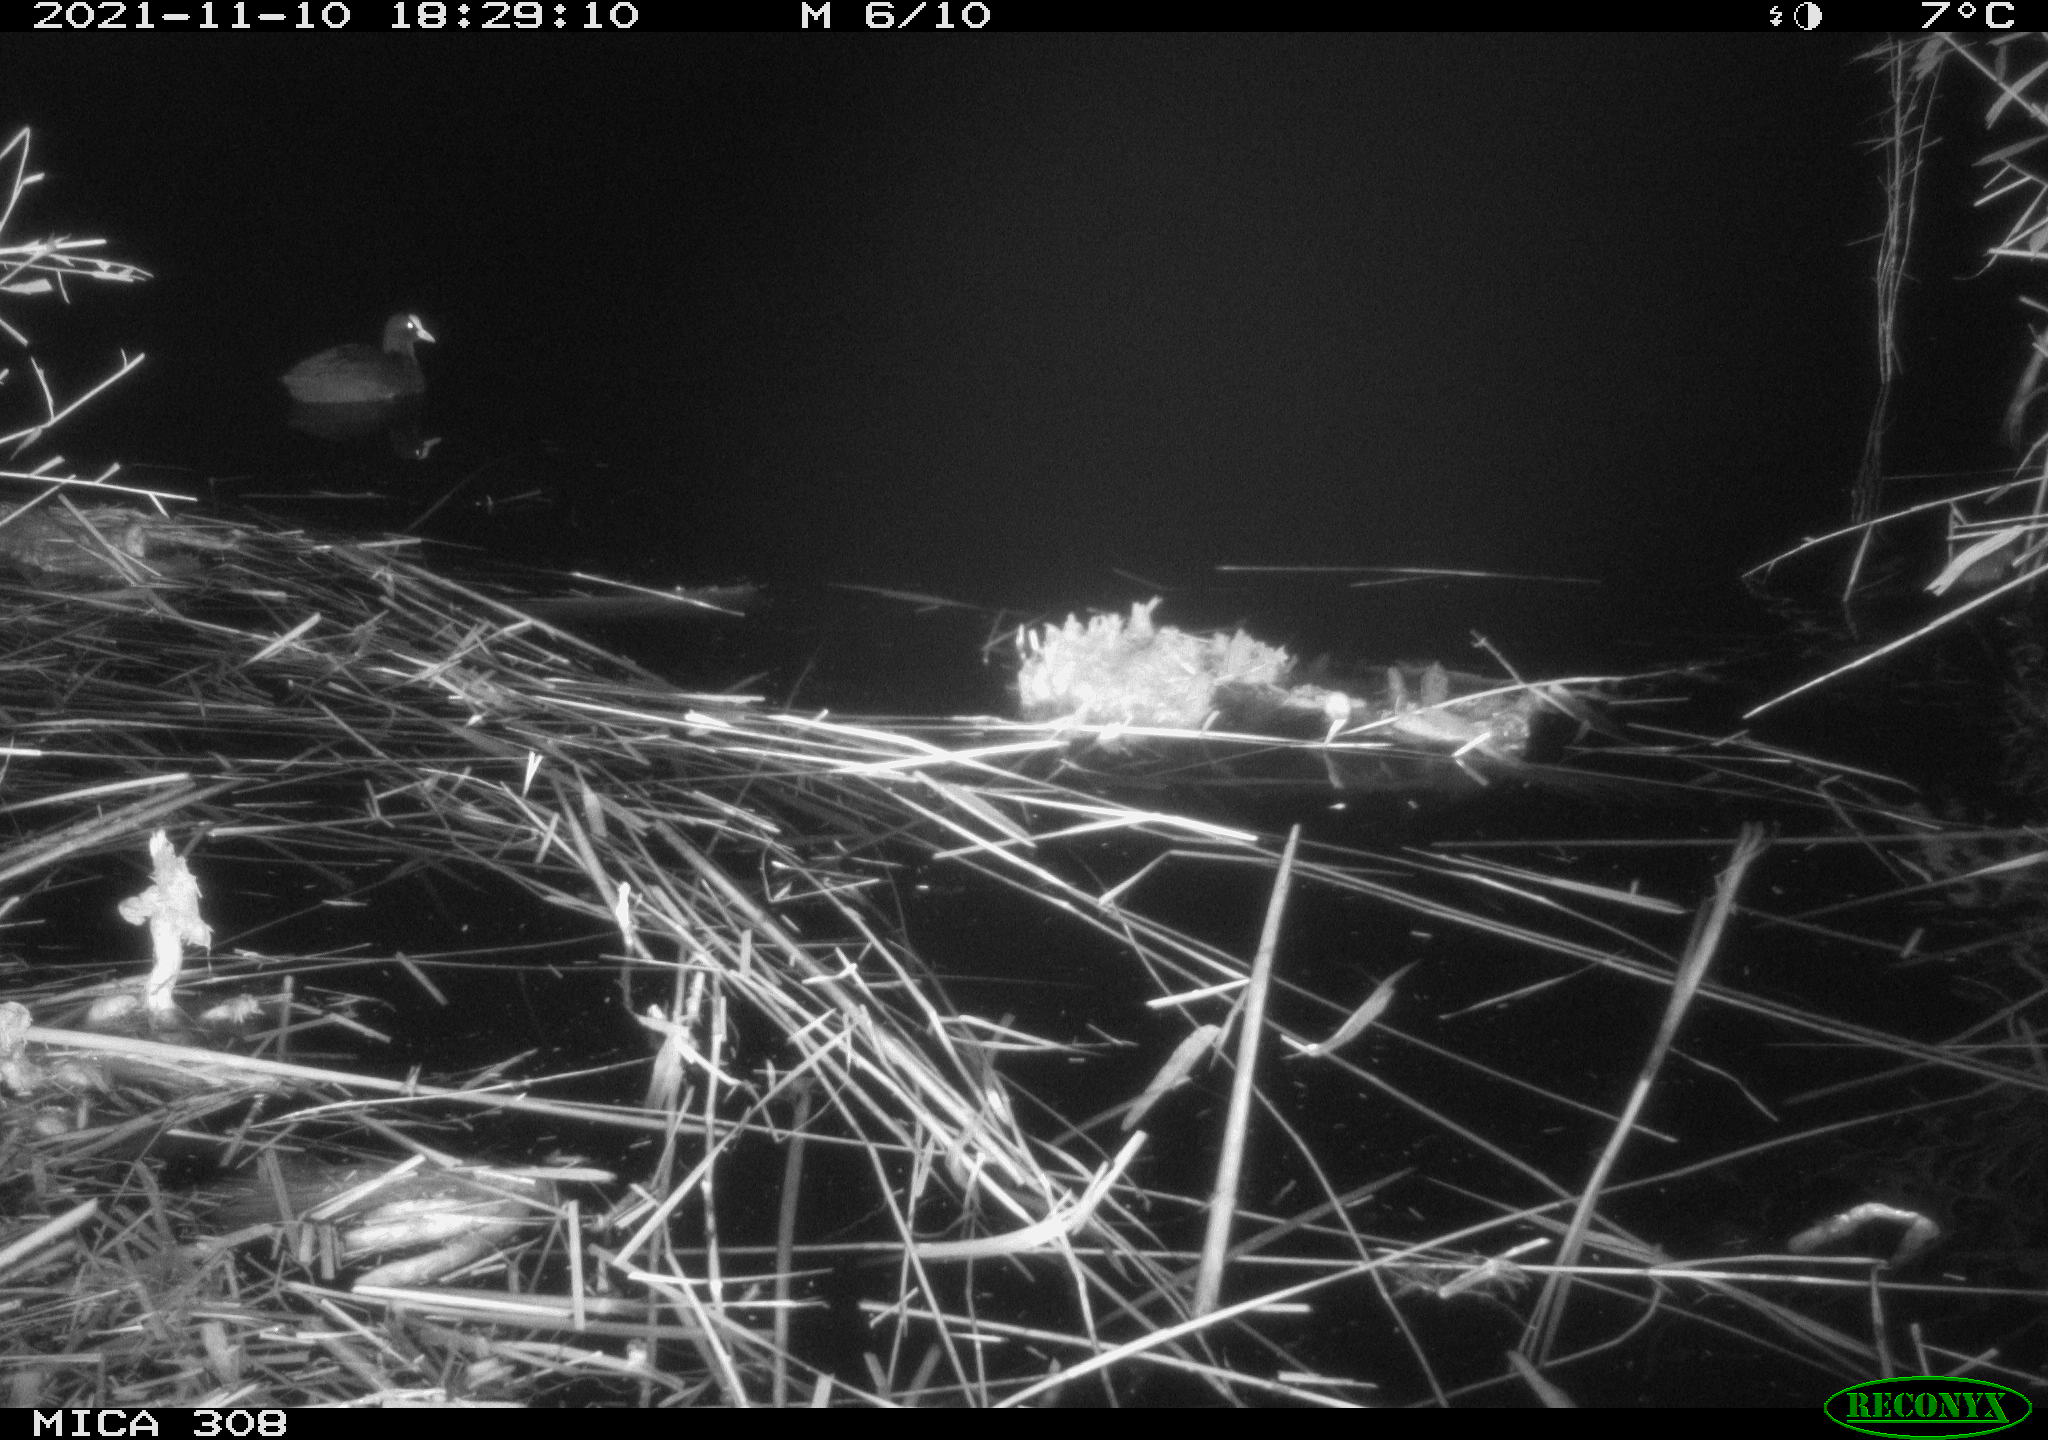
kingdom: Animalia
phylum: Chordata
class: Aves
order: Gruiformes
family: Rallidae
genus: Fulica
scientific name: Fulica atra
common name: Eurasian coot
